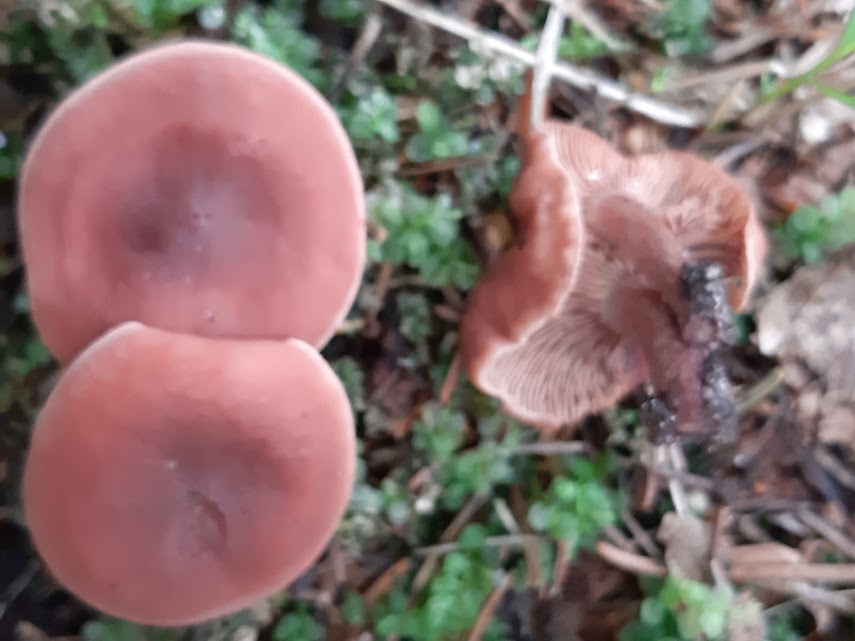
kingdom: Fungi
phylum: Basidiomycota
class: Agaricomycetes
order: Russulales
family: Russulaceae
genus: Lactarius
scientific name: Lactarius camphoratus
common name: kamfer-mælkehat
